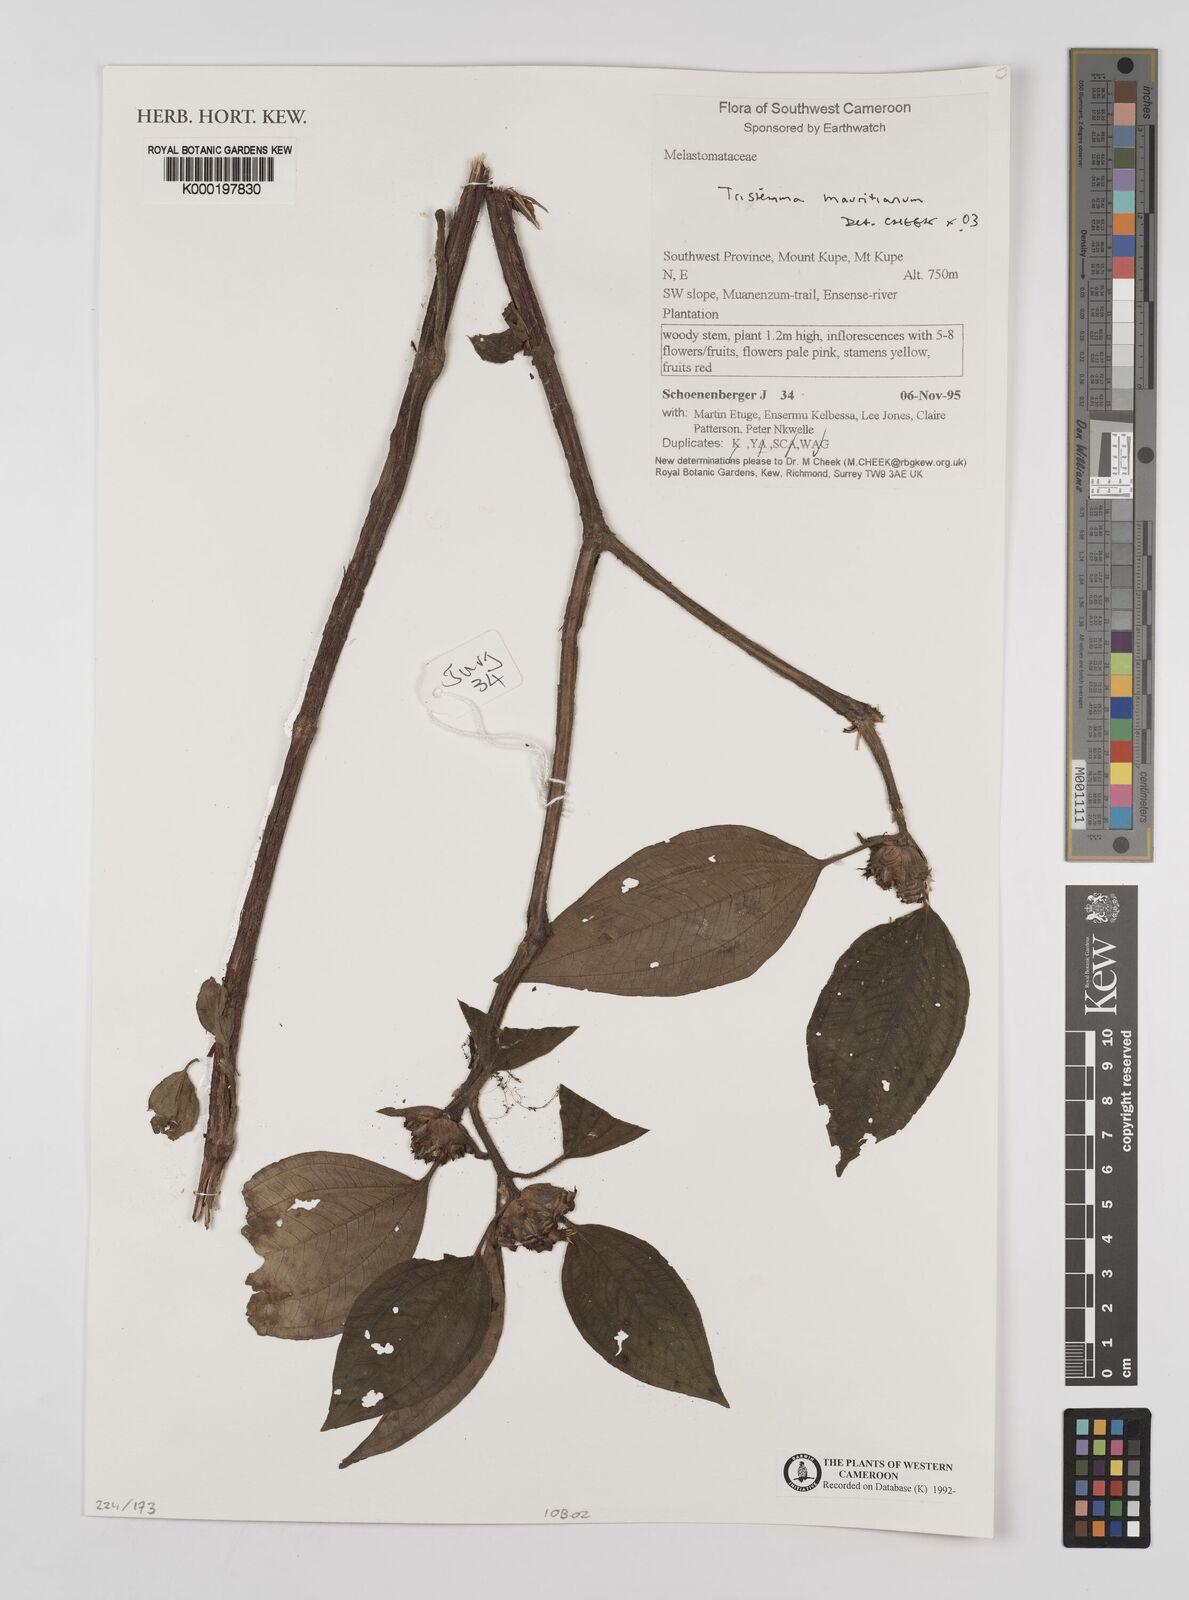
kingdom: Plantae
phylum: Tracheophyta
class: Magnoliopsida
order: Myrtales
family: Melastomataceae
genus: Tristemma
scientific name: Tristemma
